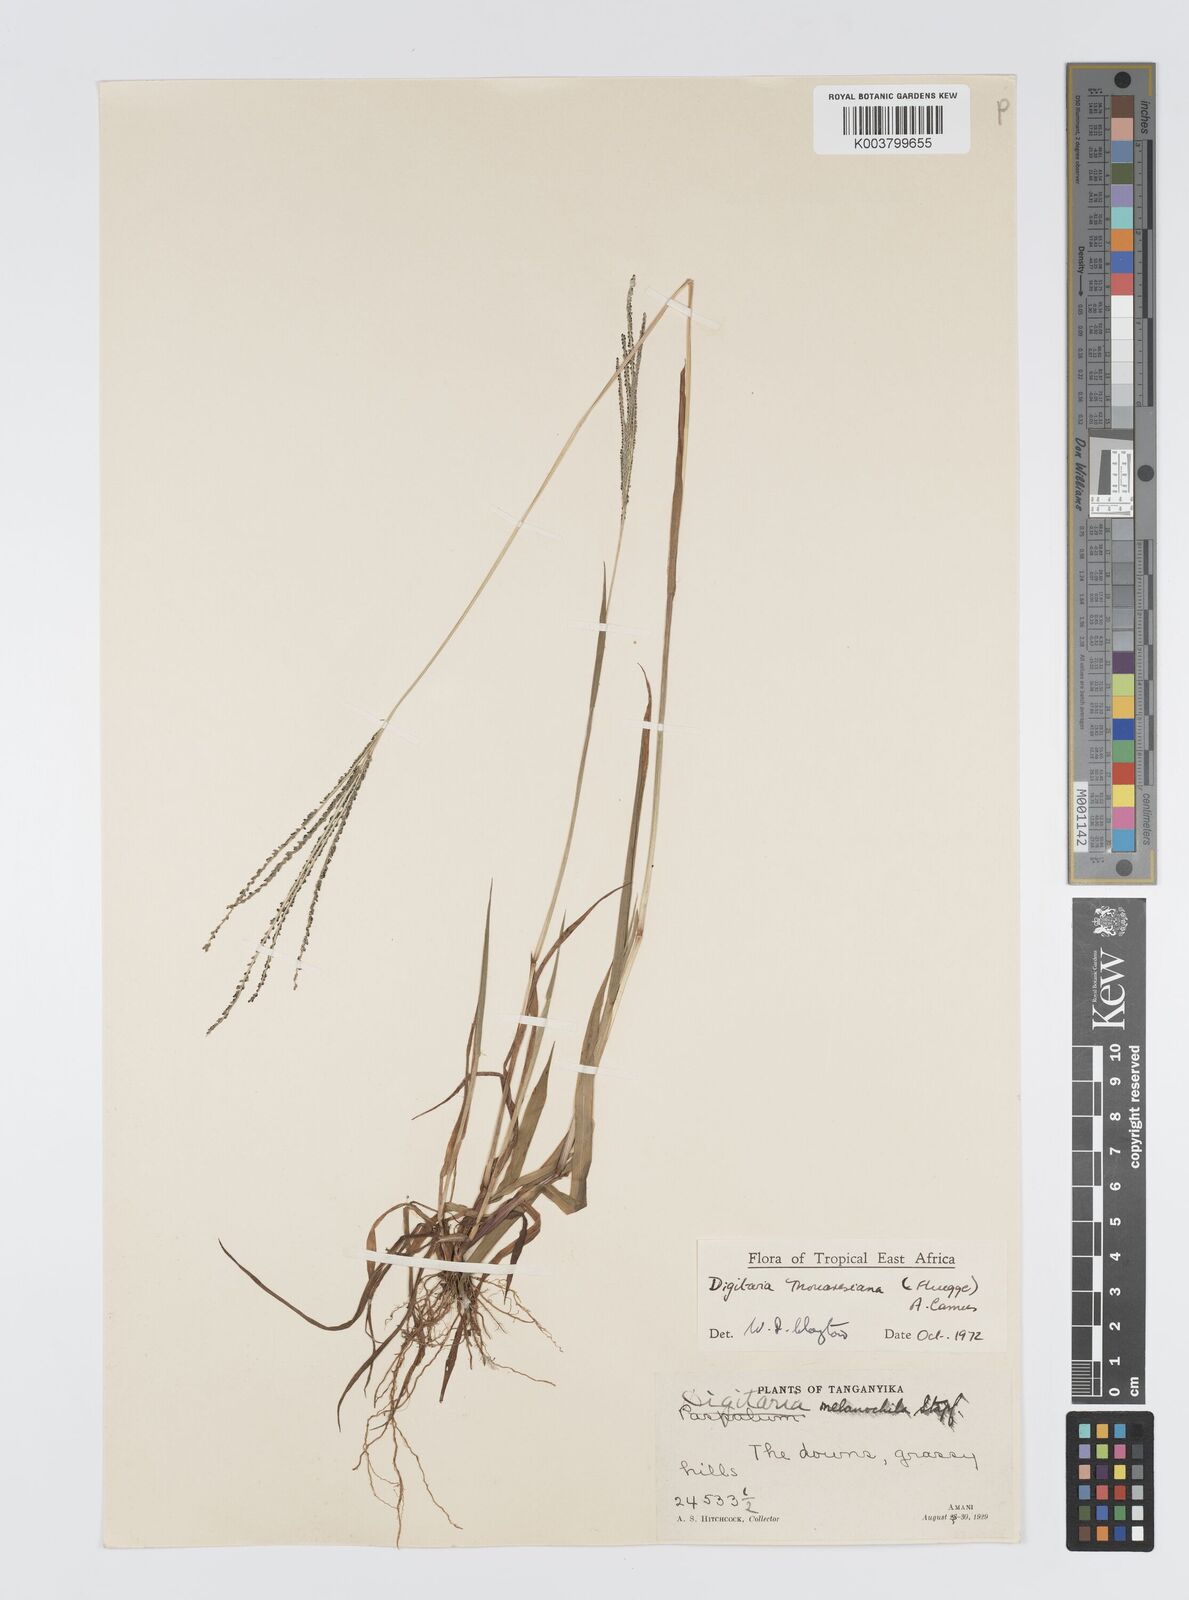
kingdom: Plantae
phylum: Tracheophyta
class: Liliopsida
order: Poales
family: Poaceae
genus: Digitaria
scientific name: Digitaria thouarsiana
